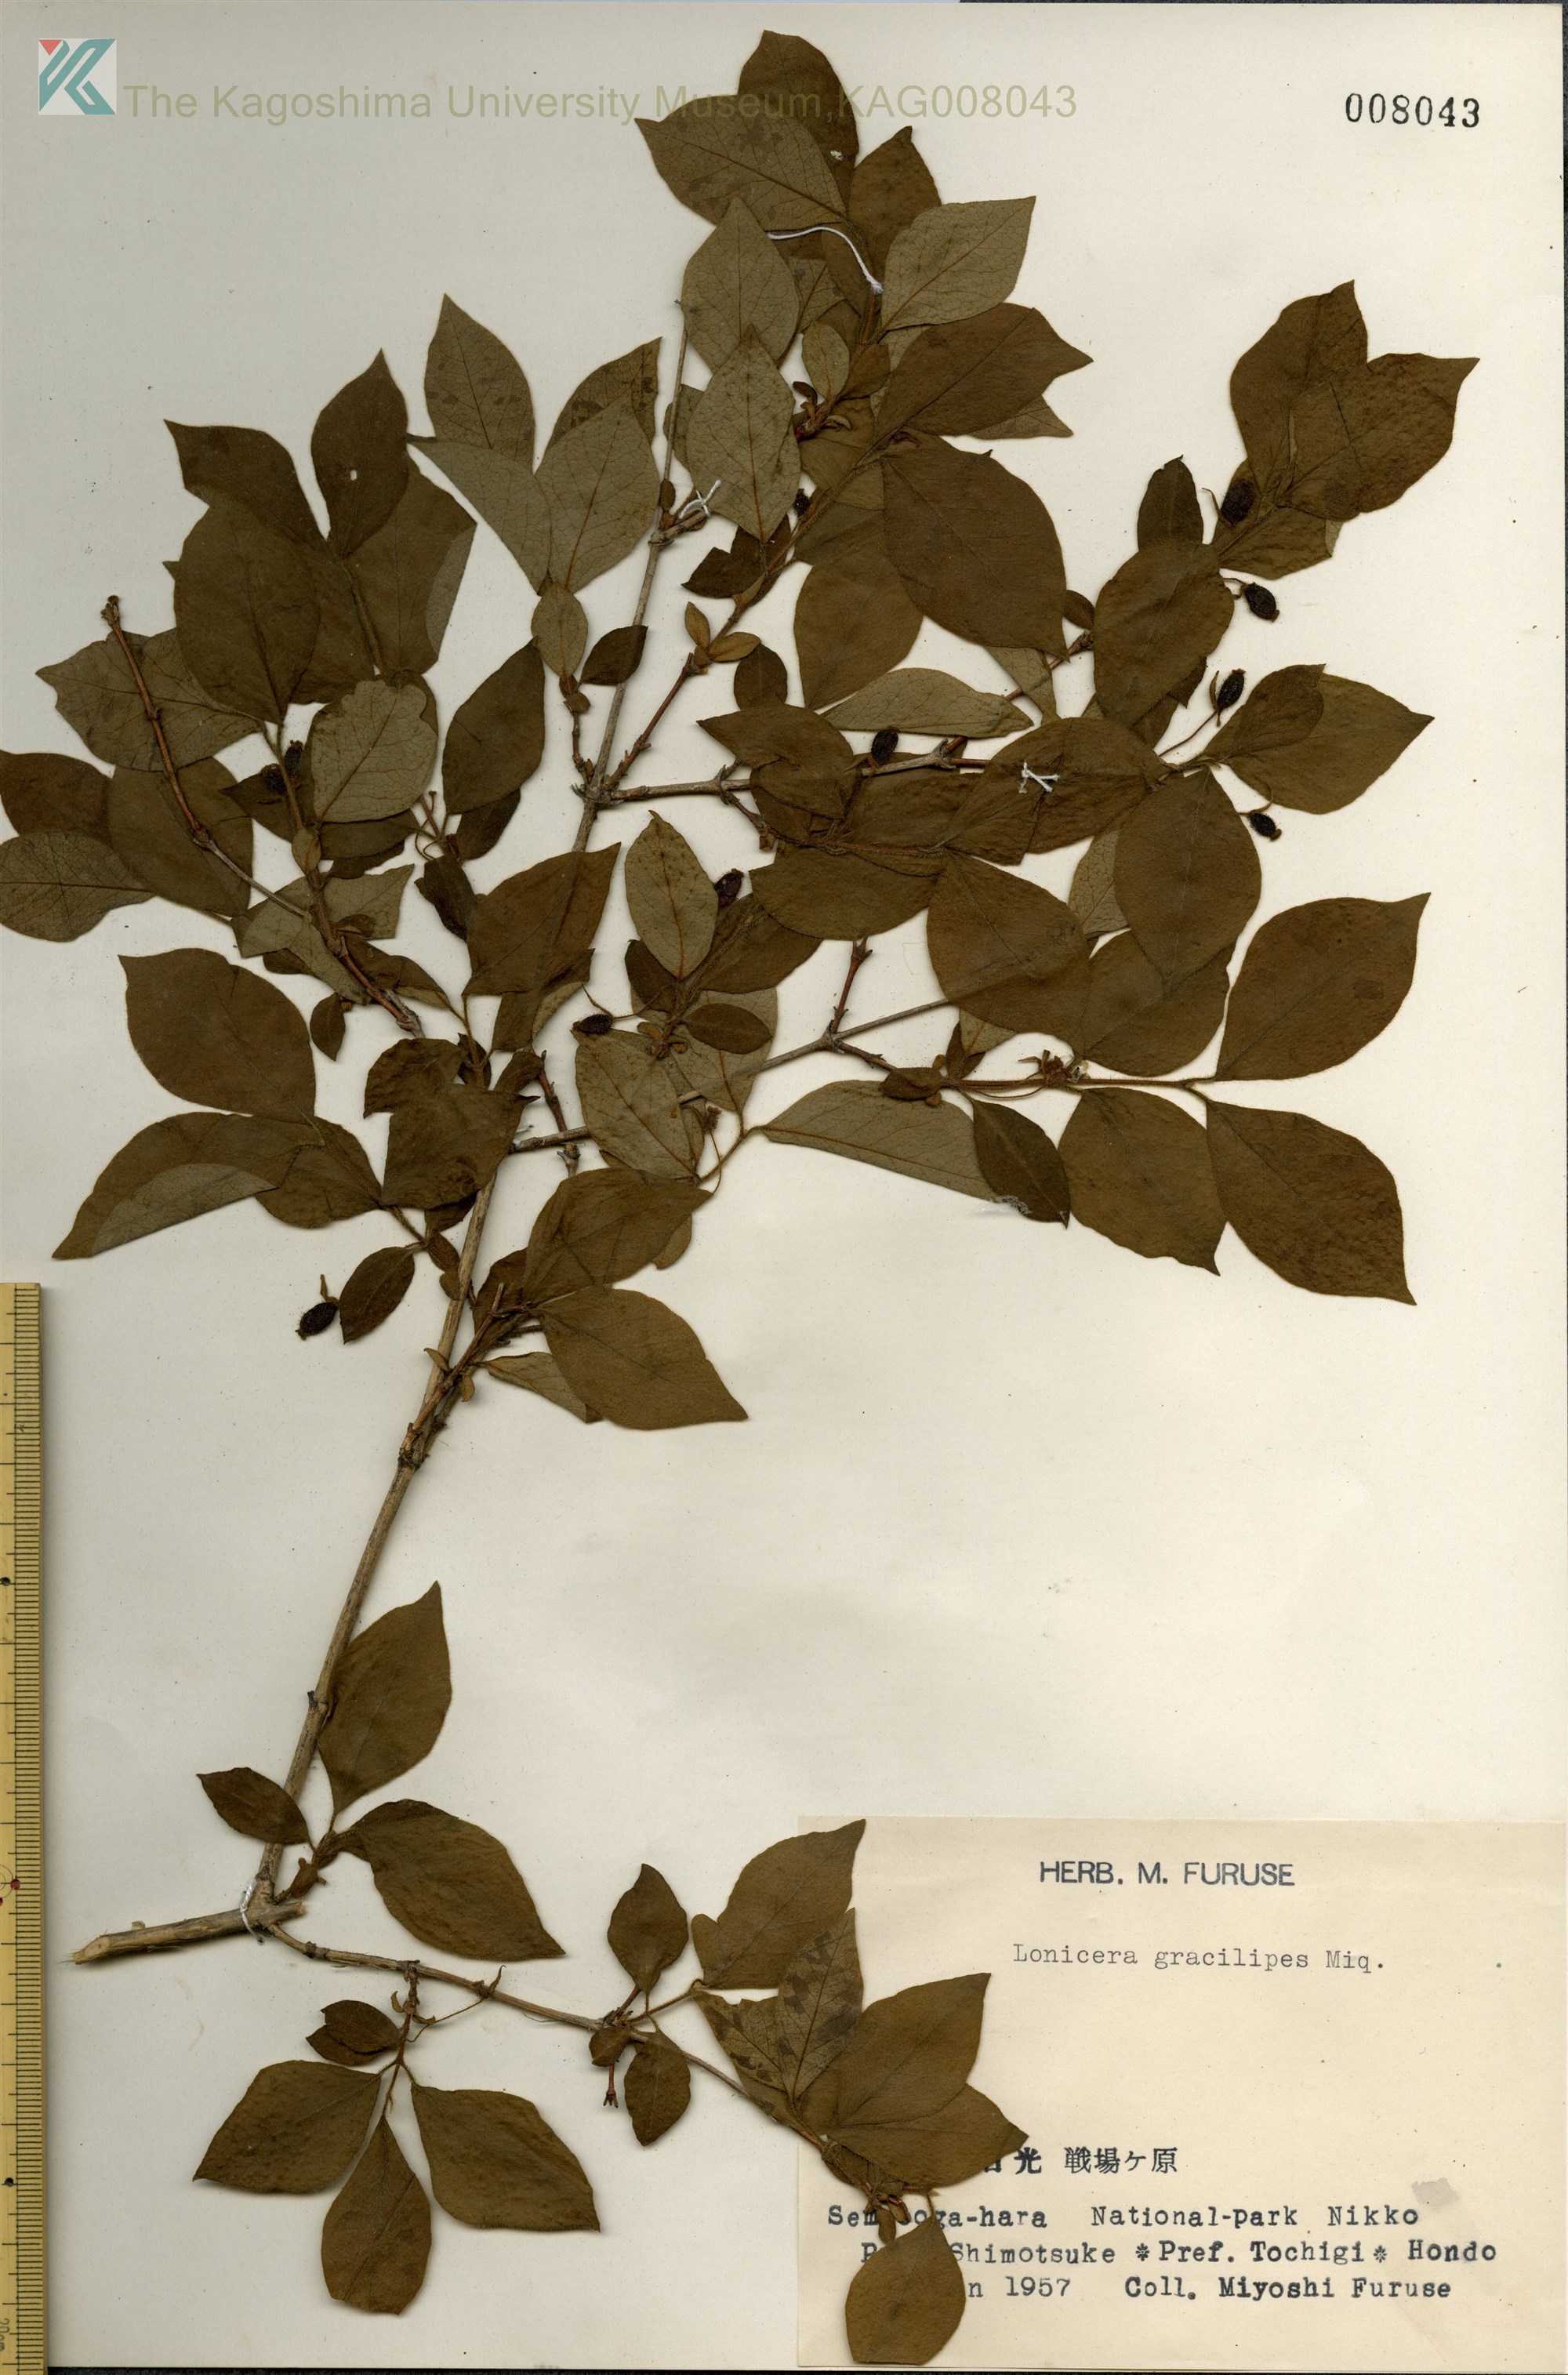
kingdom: Plantae
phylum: Tracheophyta
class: Magnoliopsida
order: Dipsacales
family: Caprifoliaceae
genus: Lonicera
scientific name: Lonicera gracilipes
